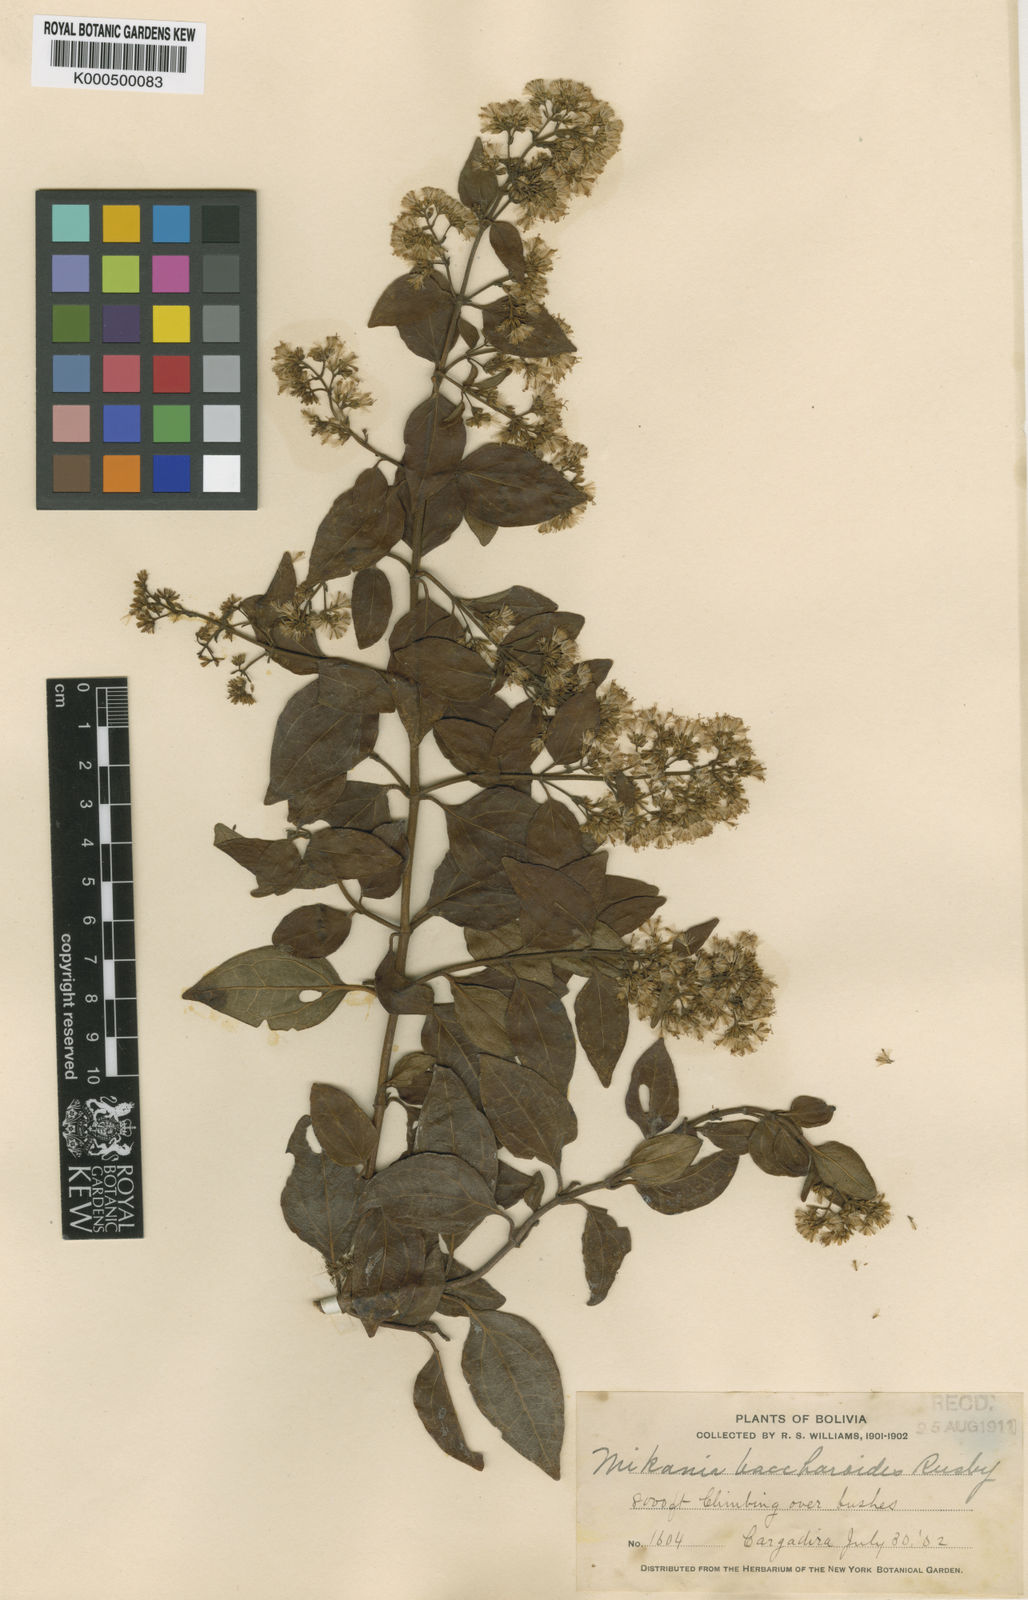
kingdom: Plantae
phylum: Tracheophyta
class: Magnoliopsida
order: Asterales
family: Asteraceae
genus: Mikania
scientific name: Mikania aschersonii
